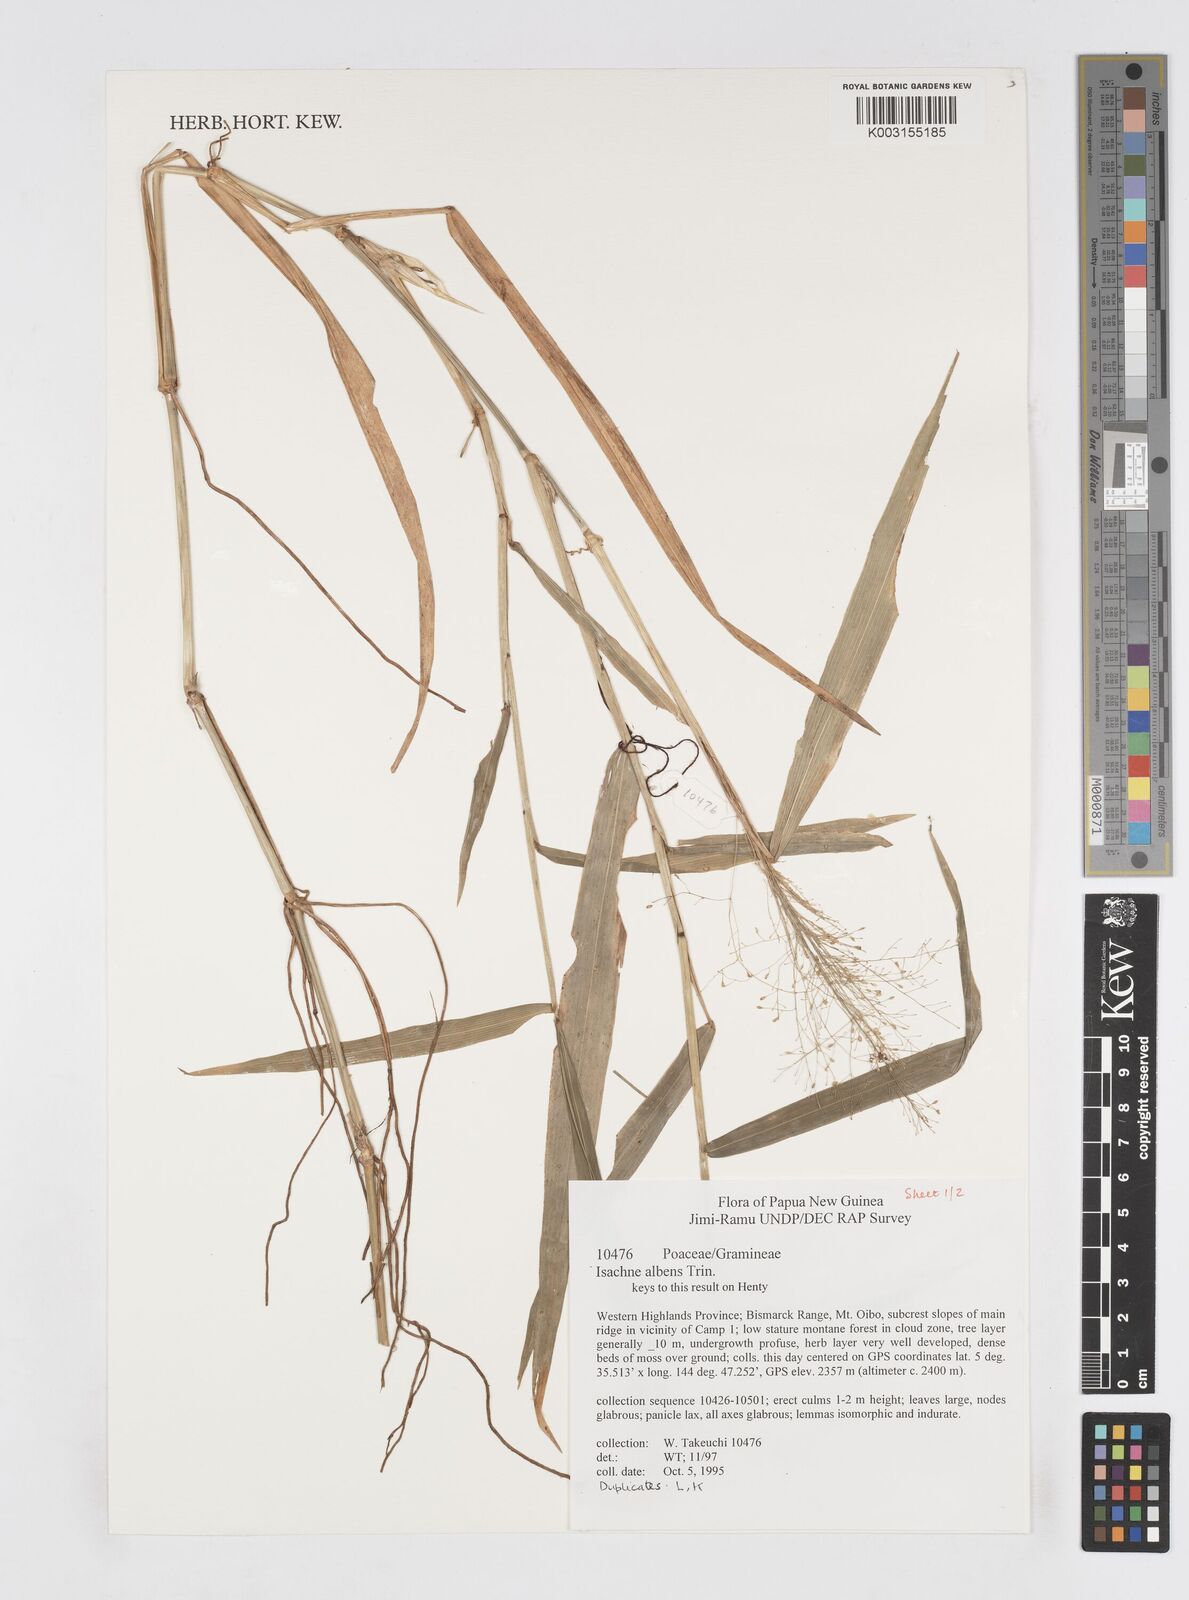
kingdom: Plantae
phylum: Tracheophyta
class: Liliopsida
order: Poales
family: Poaceae
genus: Isachne
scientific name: Isachne albens
